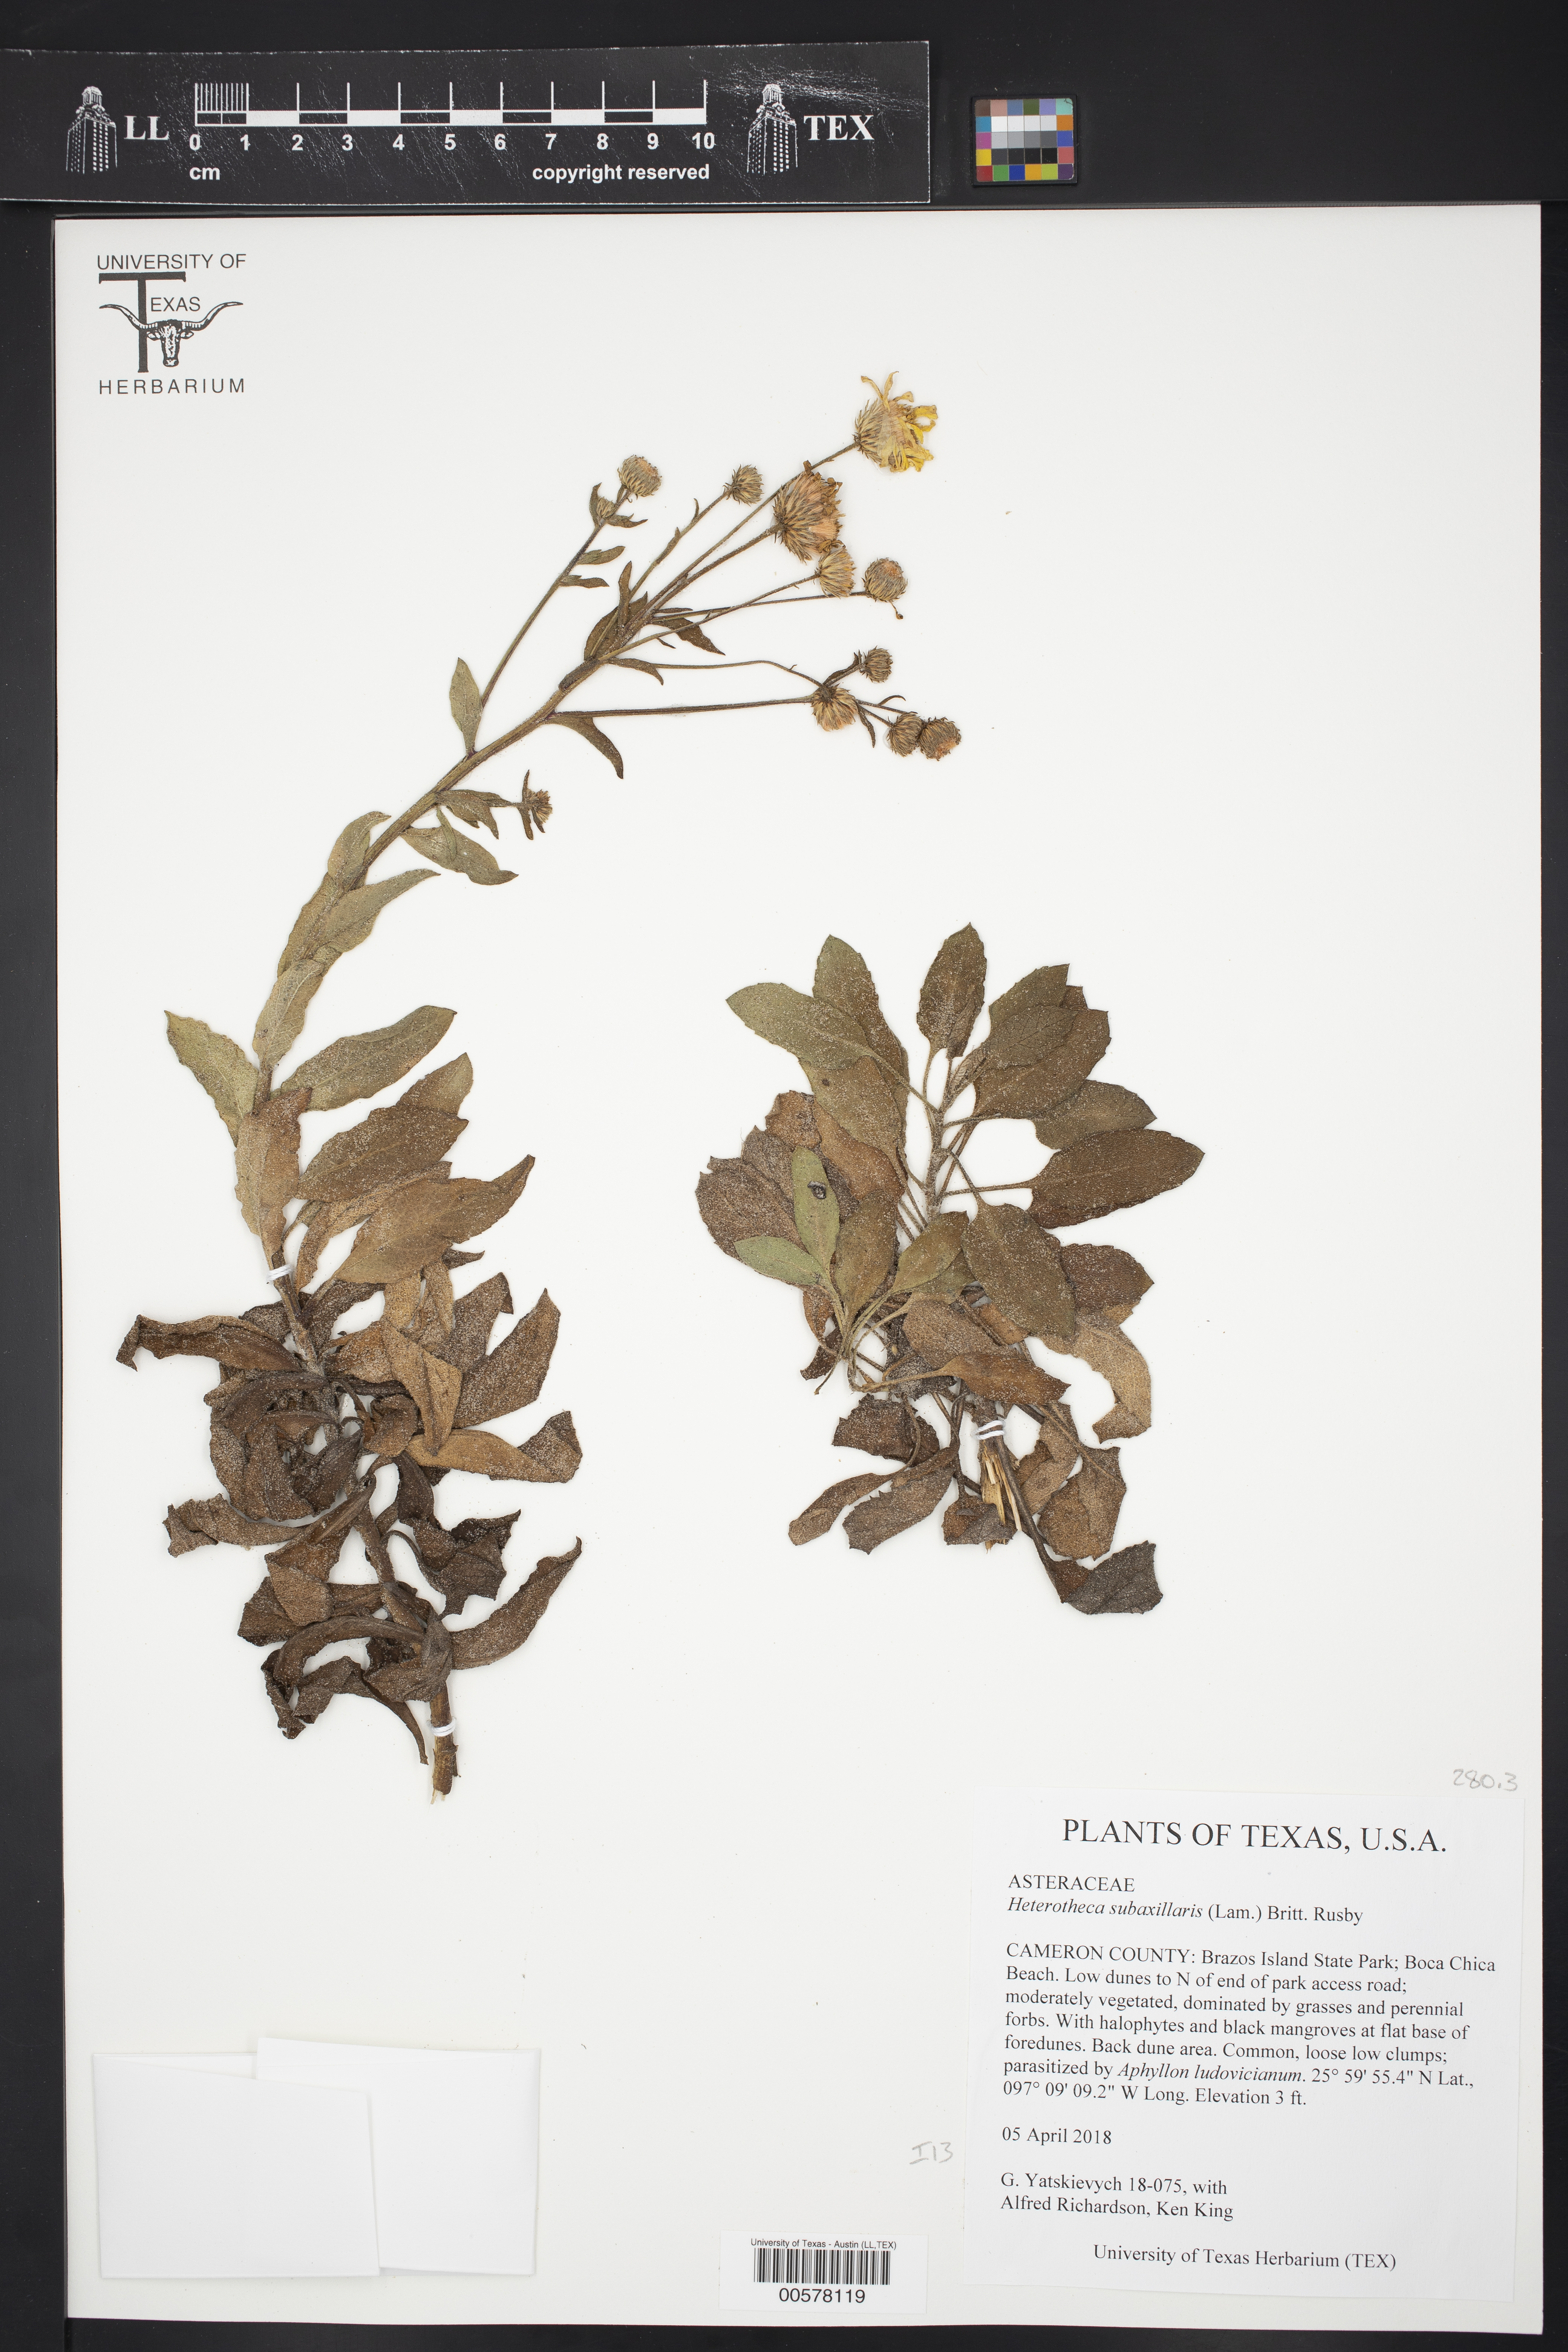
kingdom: Plantae
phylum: Tracheophyta
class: Magnoliopsida
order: Asterales
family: Asteraceae
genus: Heterotheca
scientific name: Heterotheca subaxillaris
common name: Camphorweed
